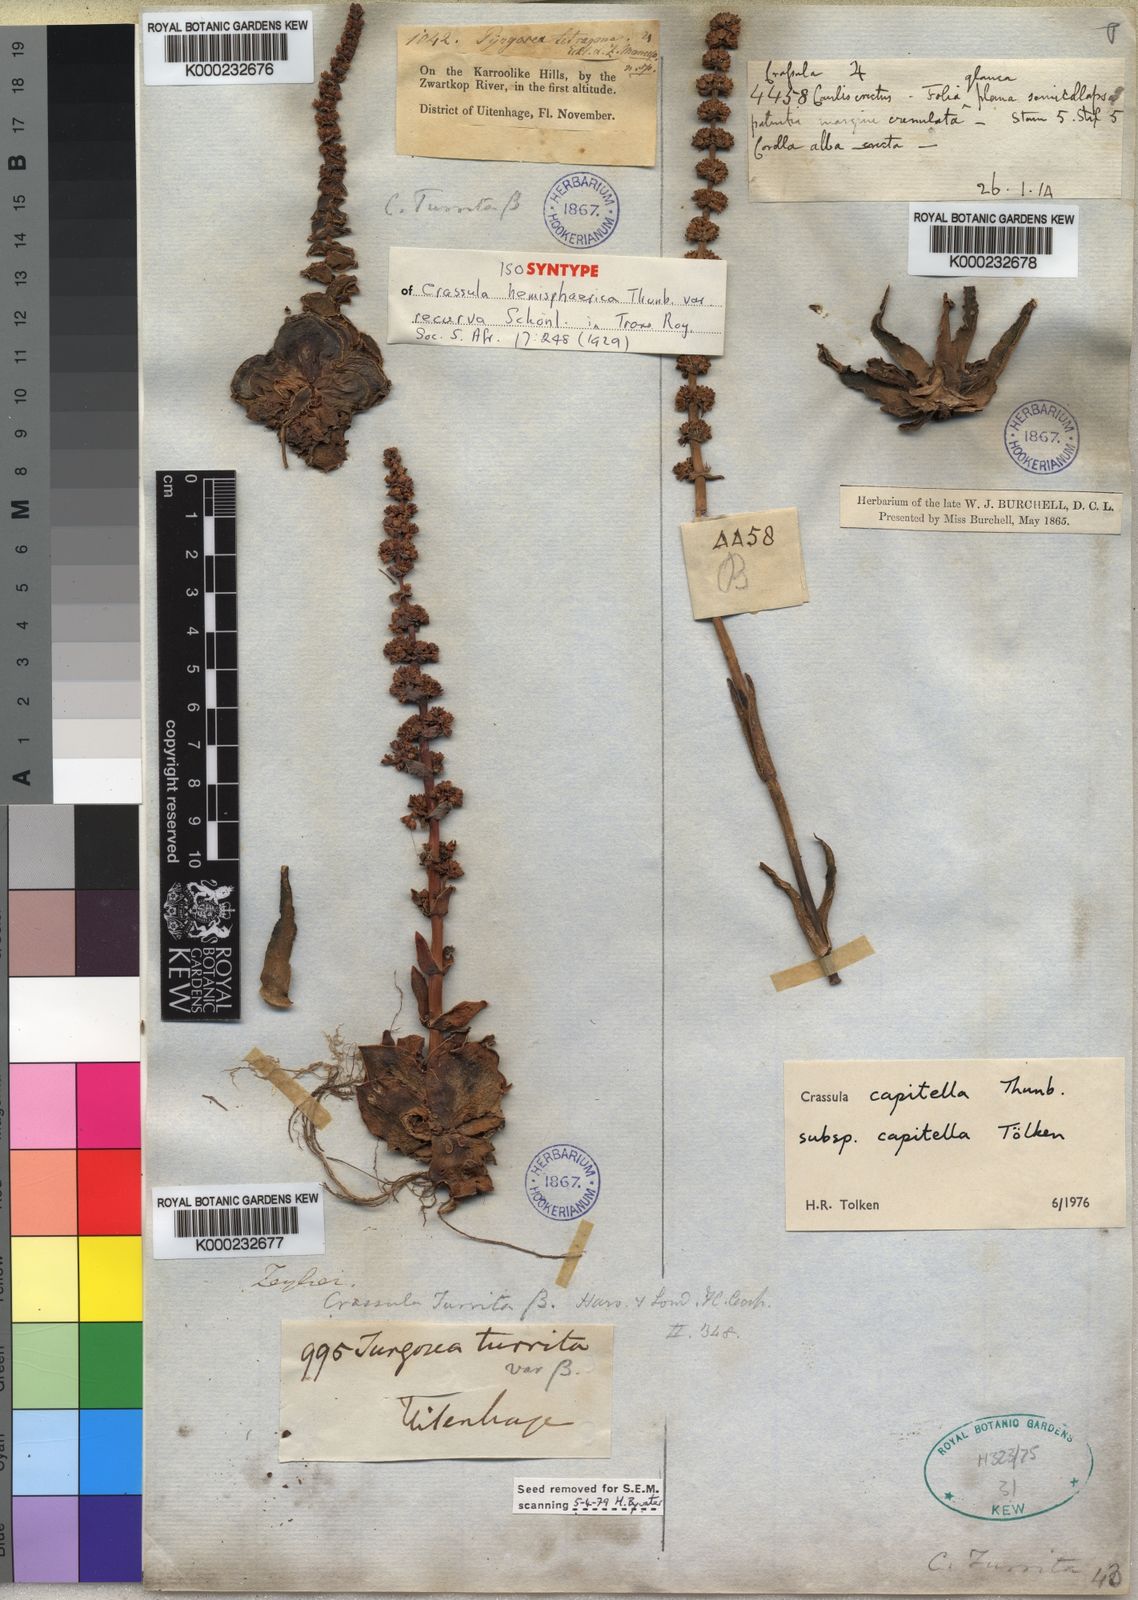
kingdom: Plantae
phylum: Tracheophyta
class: Magnoliopsida
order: Saxifragales
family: Crassulaceae
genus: Crassula
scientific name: Crassula capitella
